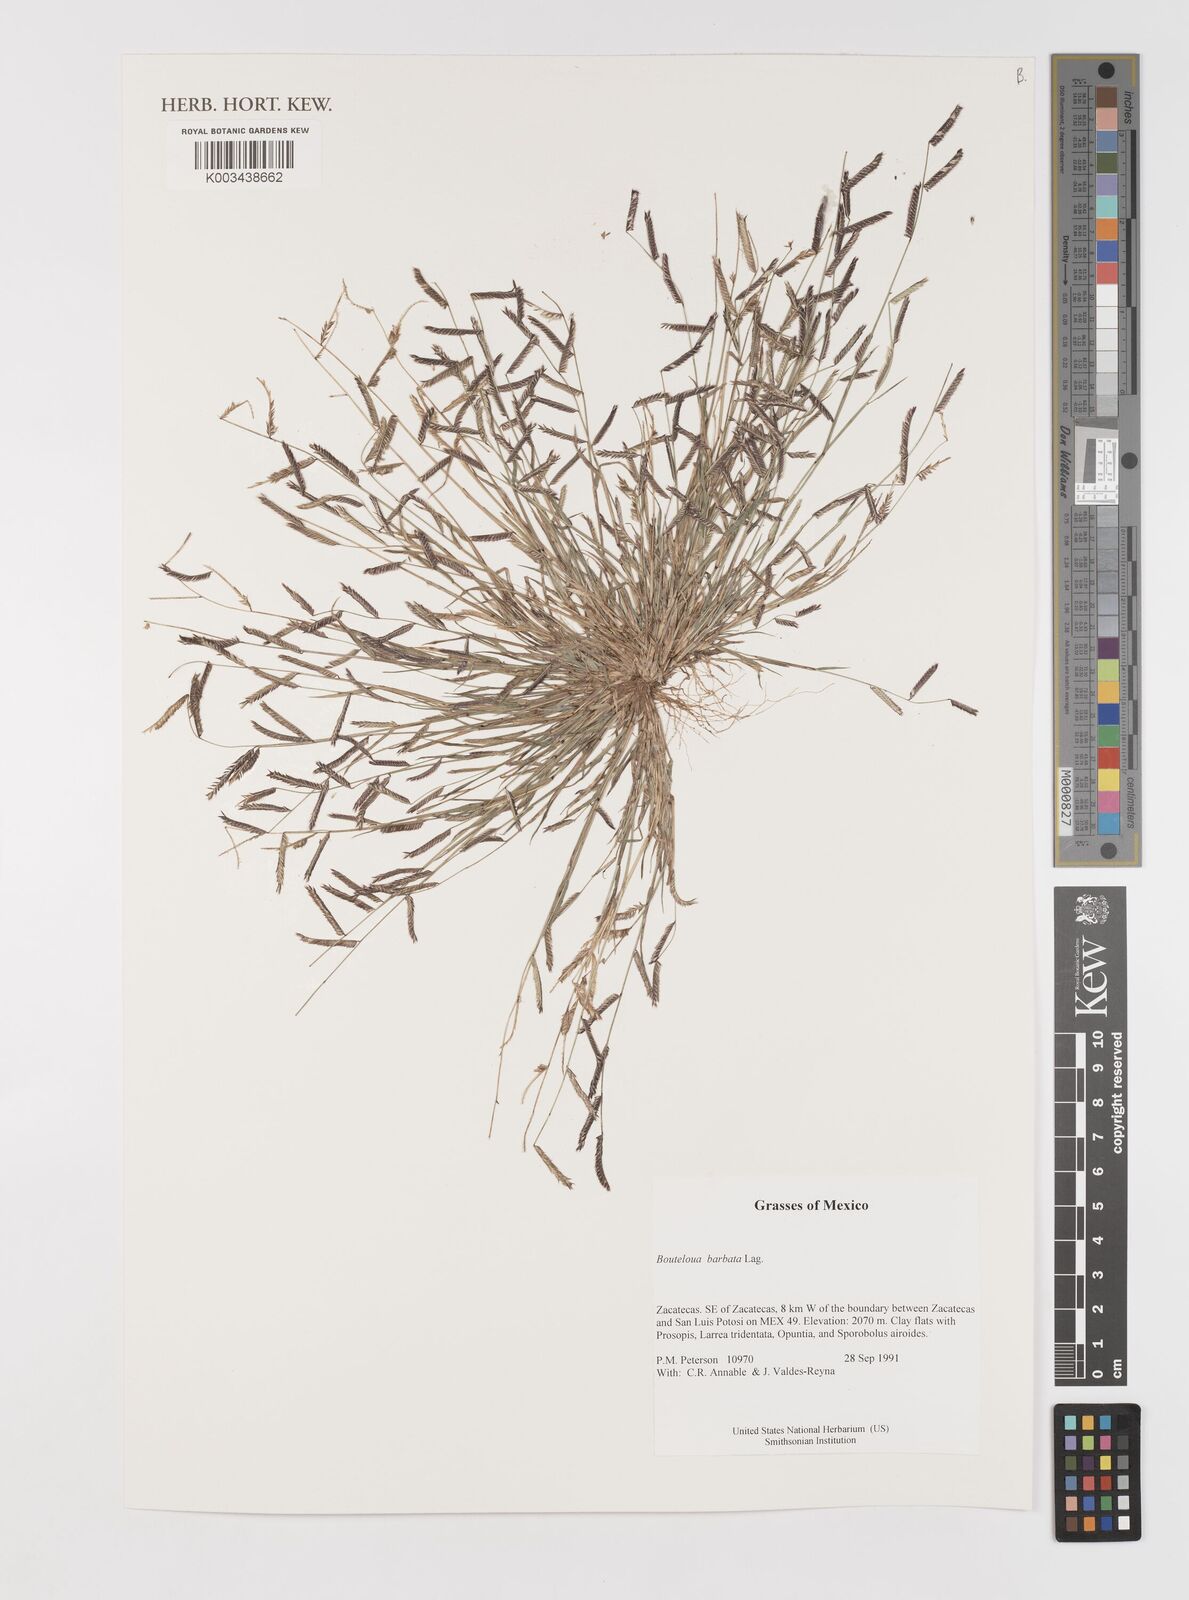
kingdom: Plantae
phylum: Tracheophyta
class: Liliopsida
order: Poales
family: Poaceae
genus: Bouteloua
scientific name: Bouteloua
